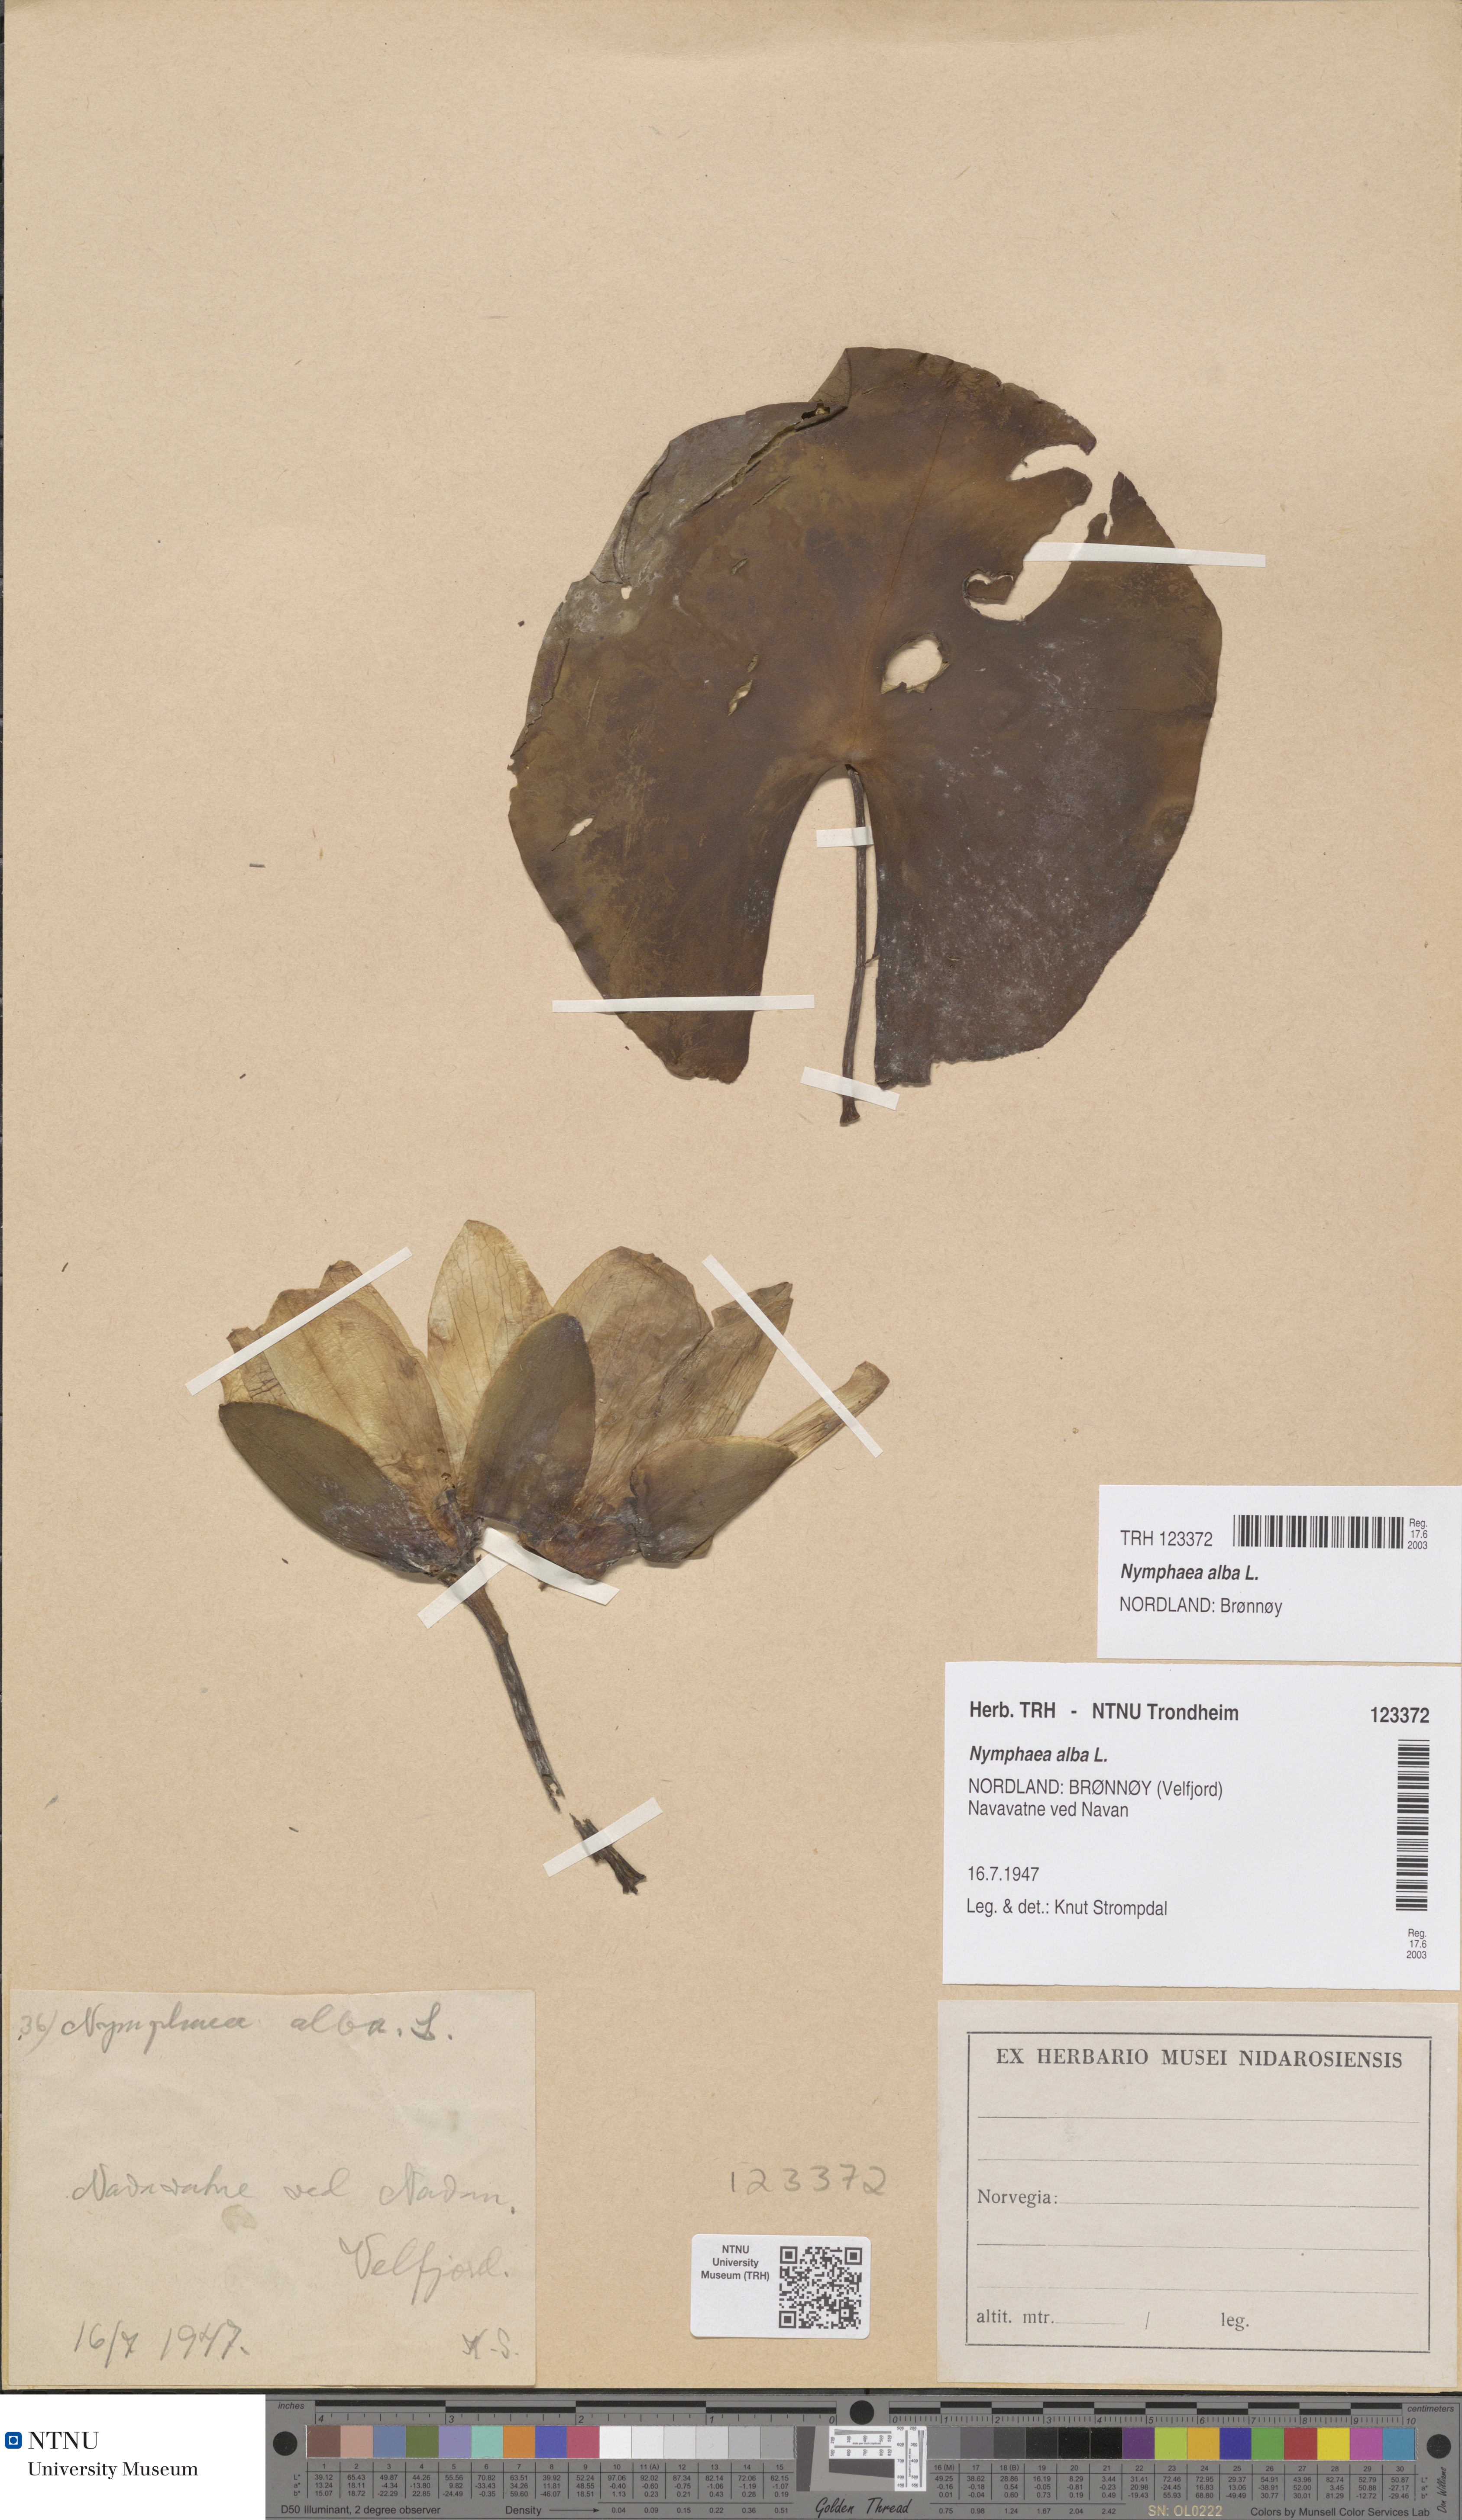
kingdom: Plantae
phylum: Tracheophyta
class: Magnoliopsida
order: Nymphaeales
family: Nymphaeaceae
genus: Nymphaea
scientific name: Nymphaea alba
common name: White water-lily
